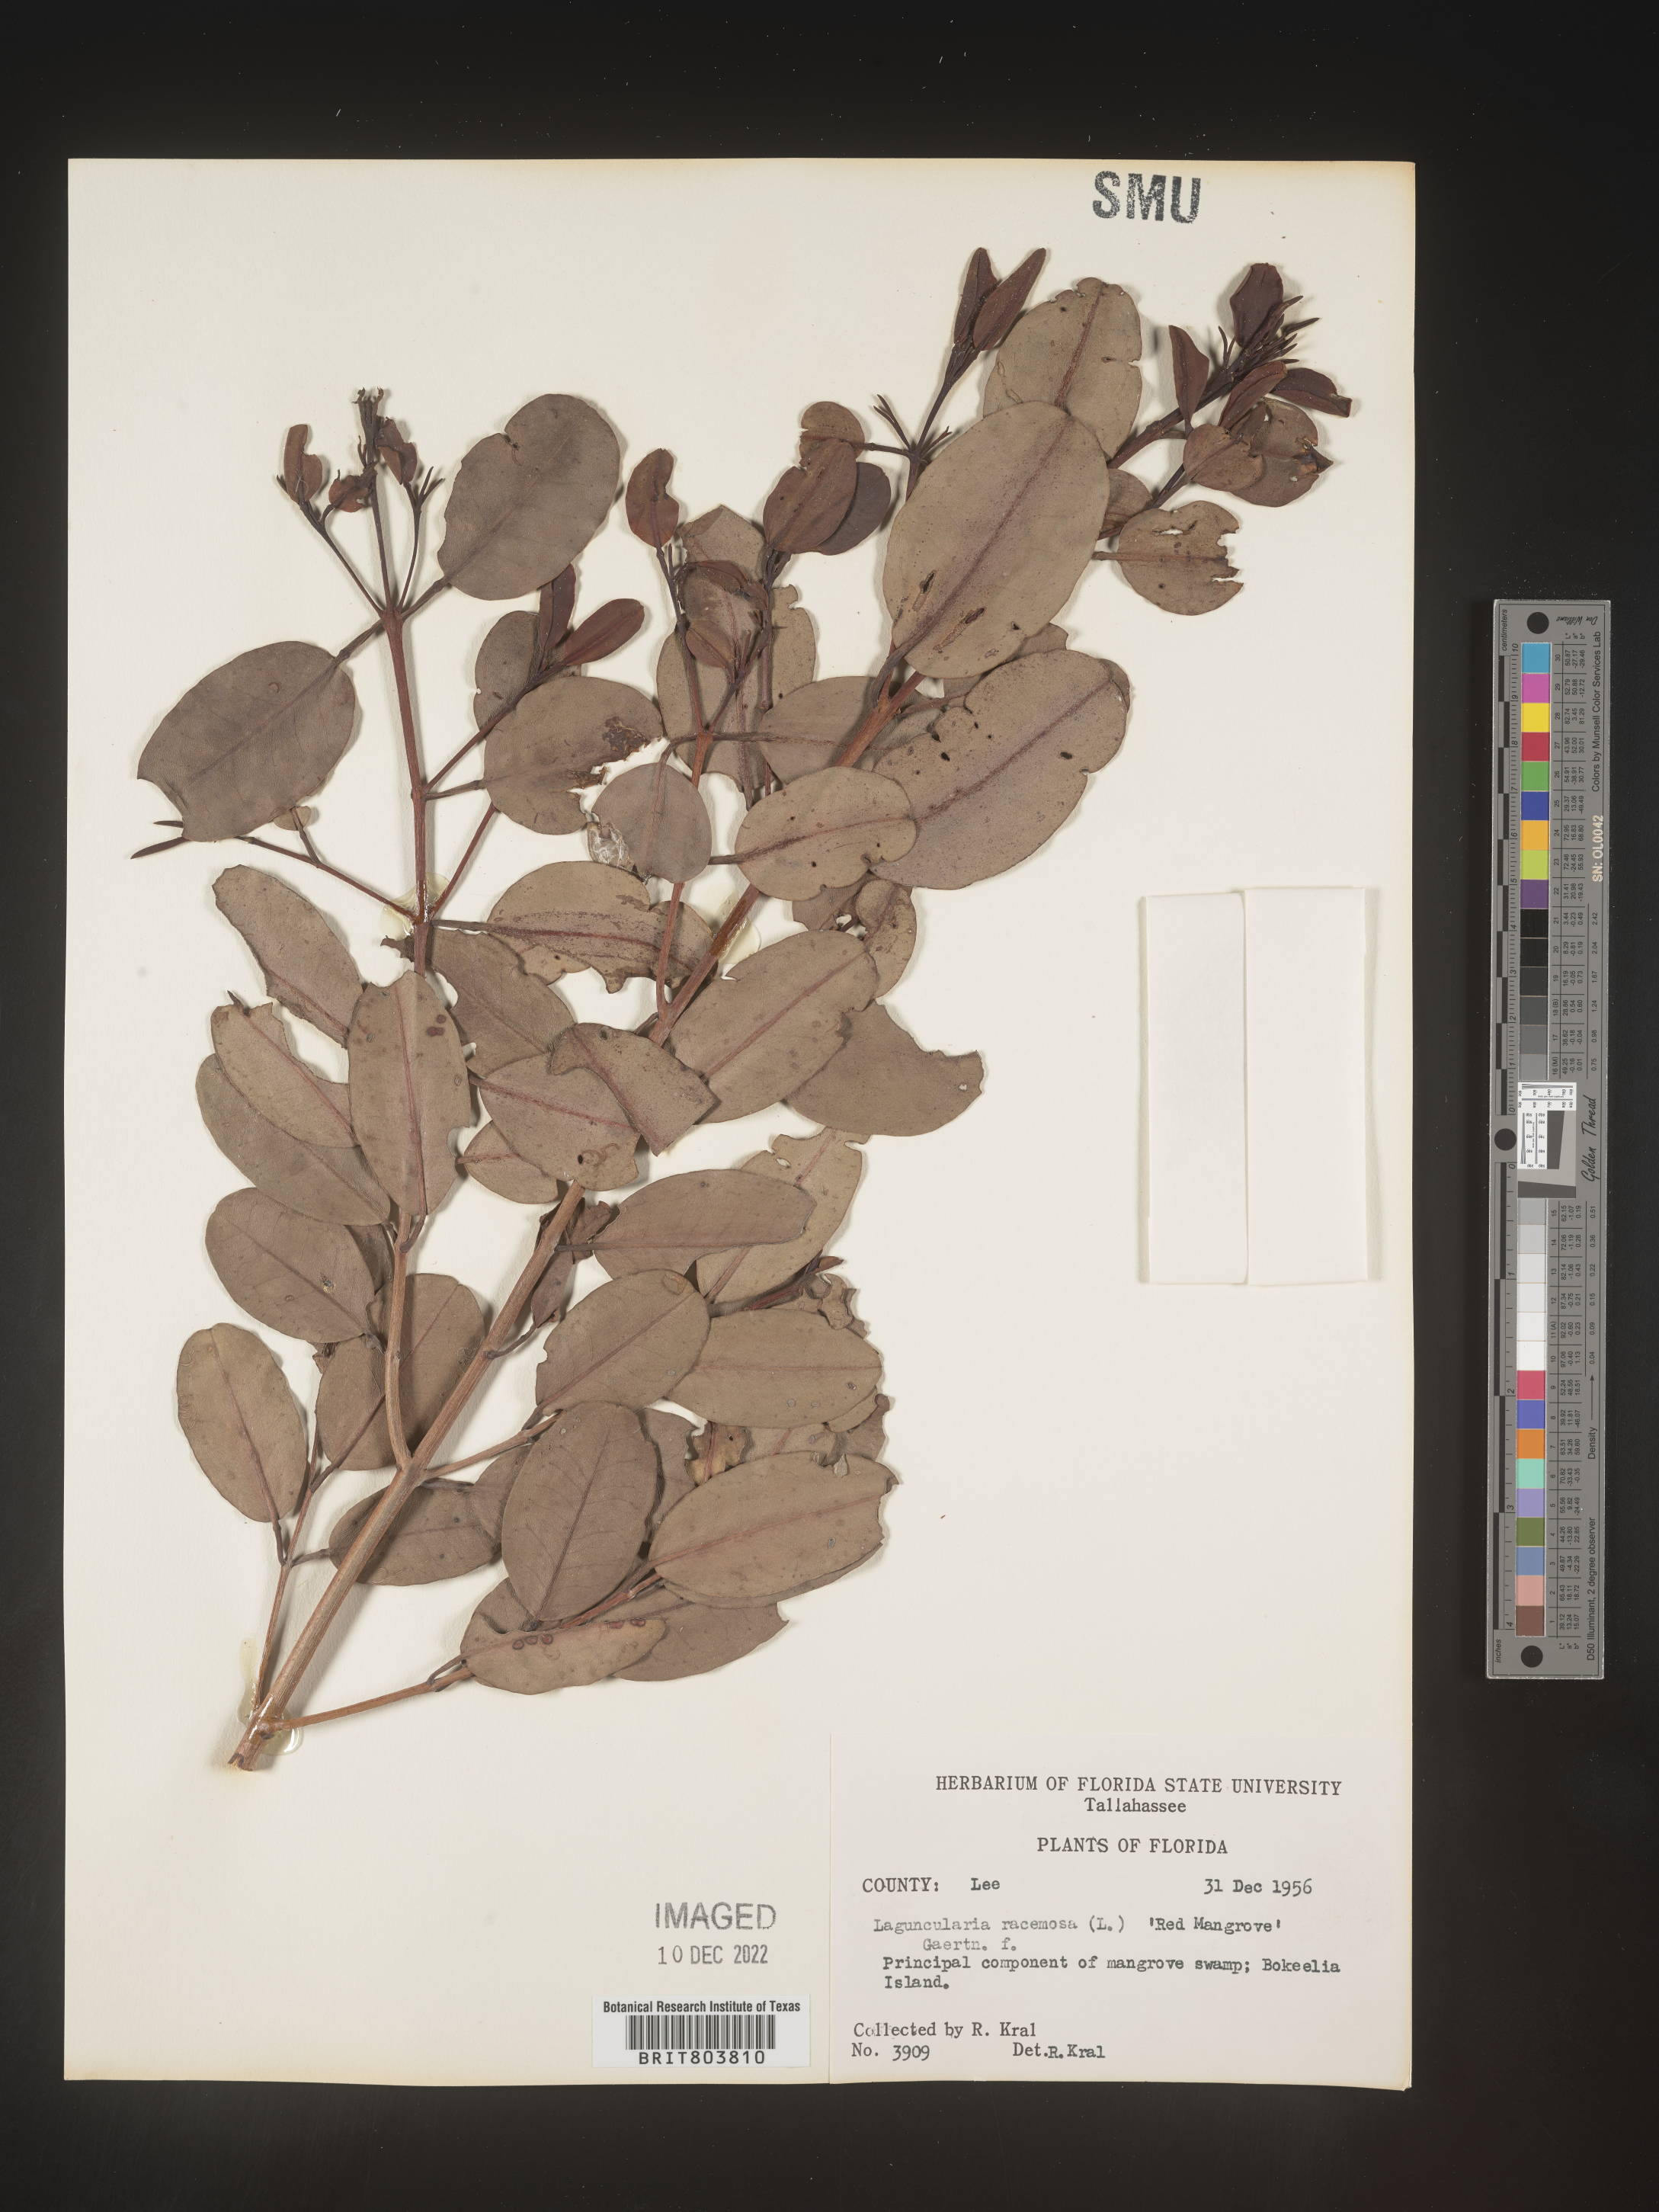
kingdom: Plantae
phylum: Tracheophyta
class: Magnoliopsida
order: Myrtales
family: Combretaceae
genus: Laguncularia
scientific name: Laguncularia
